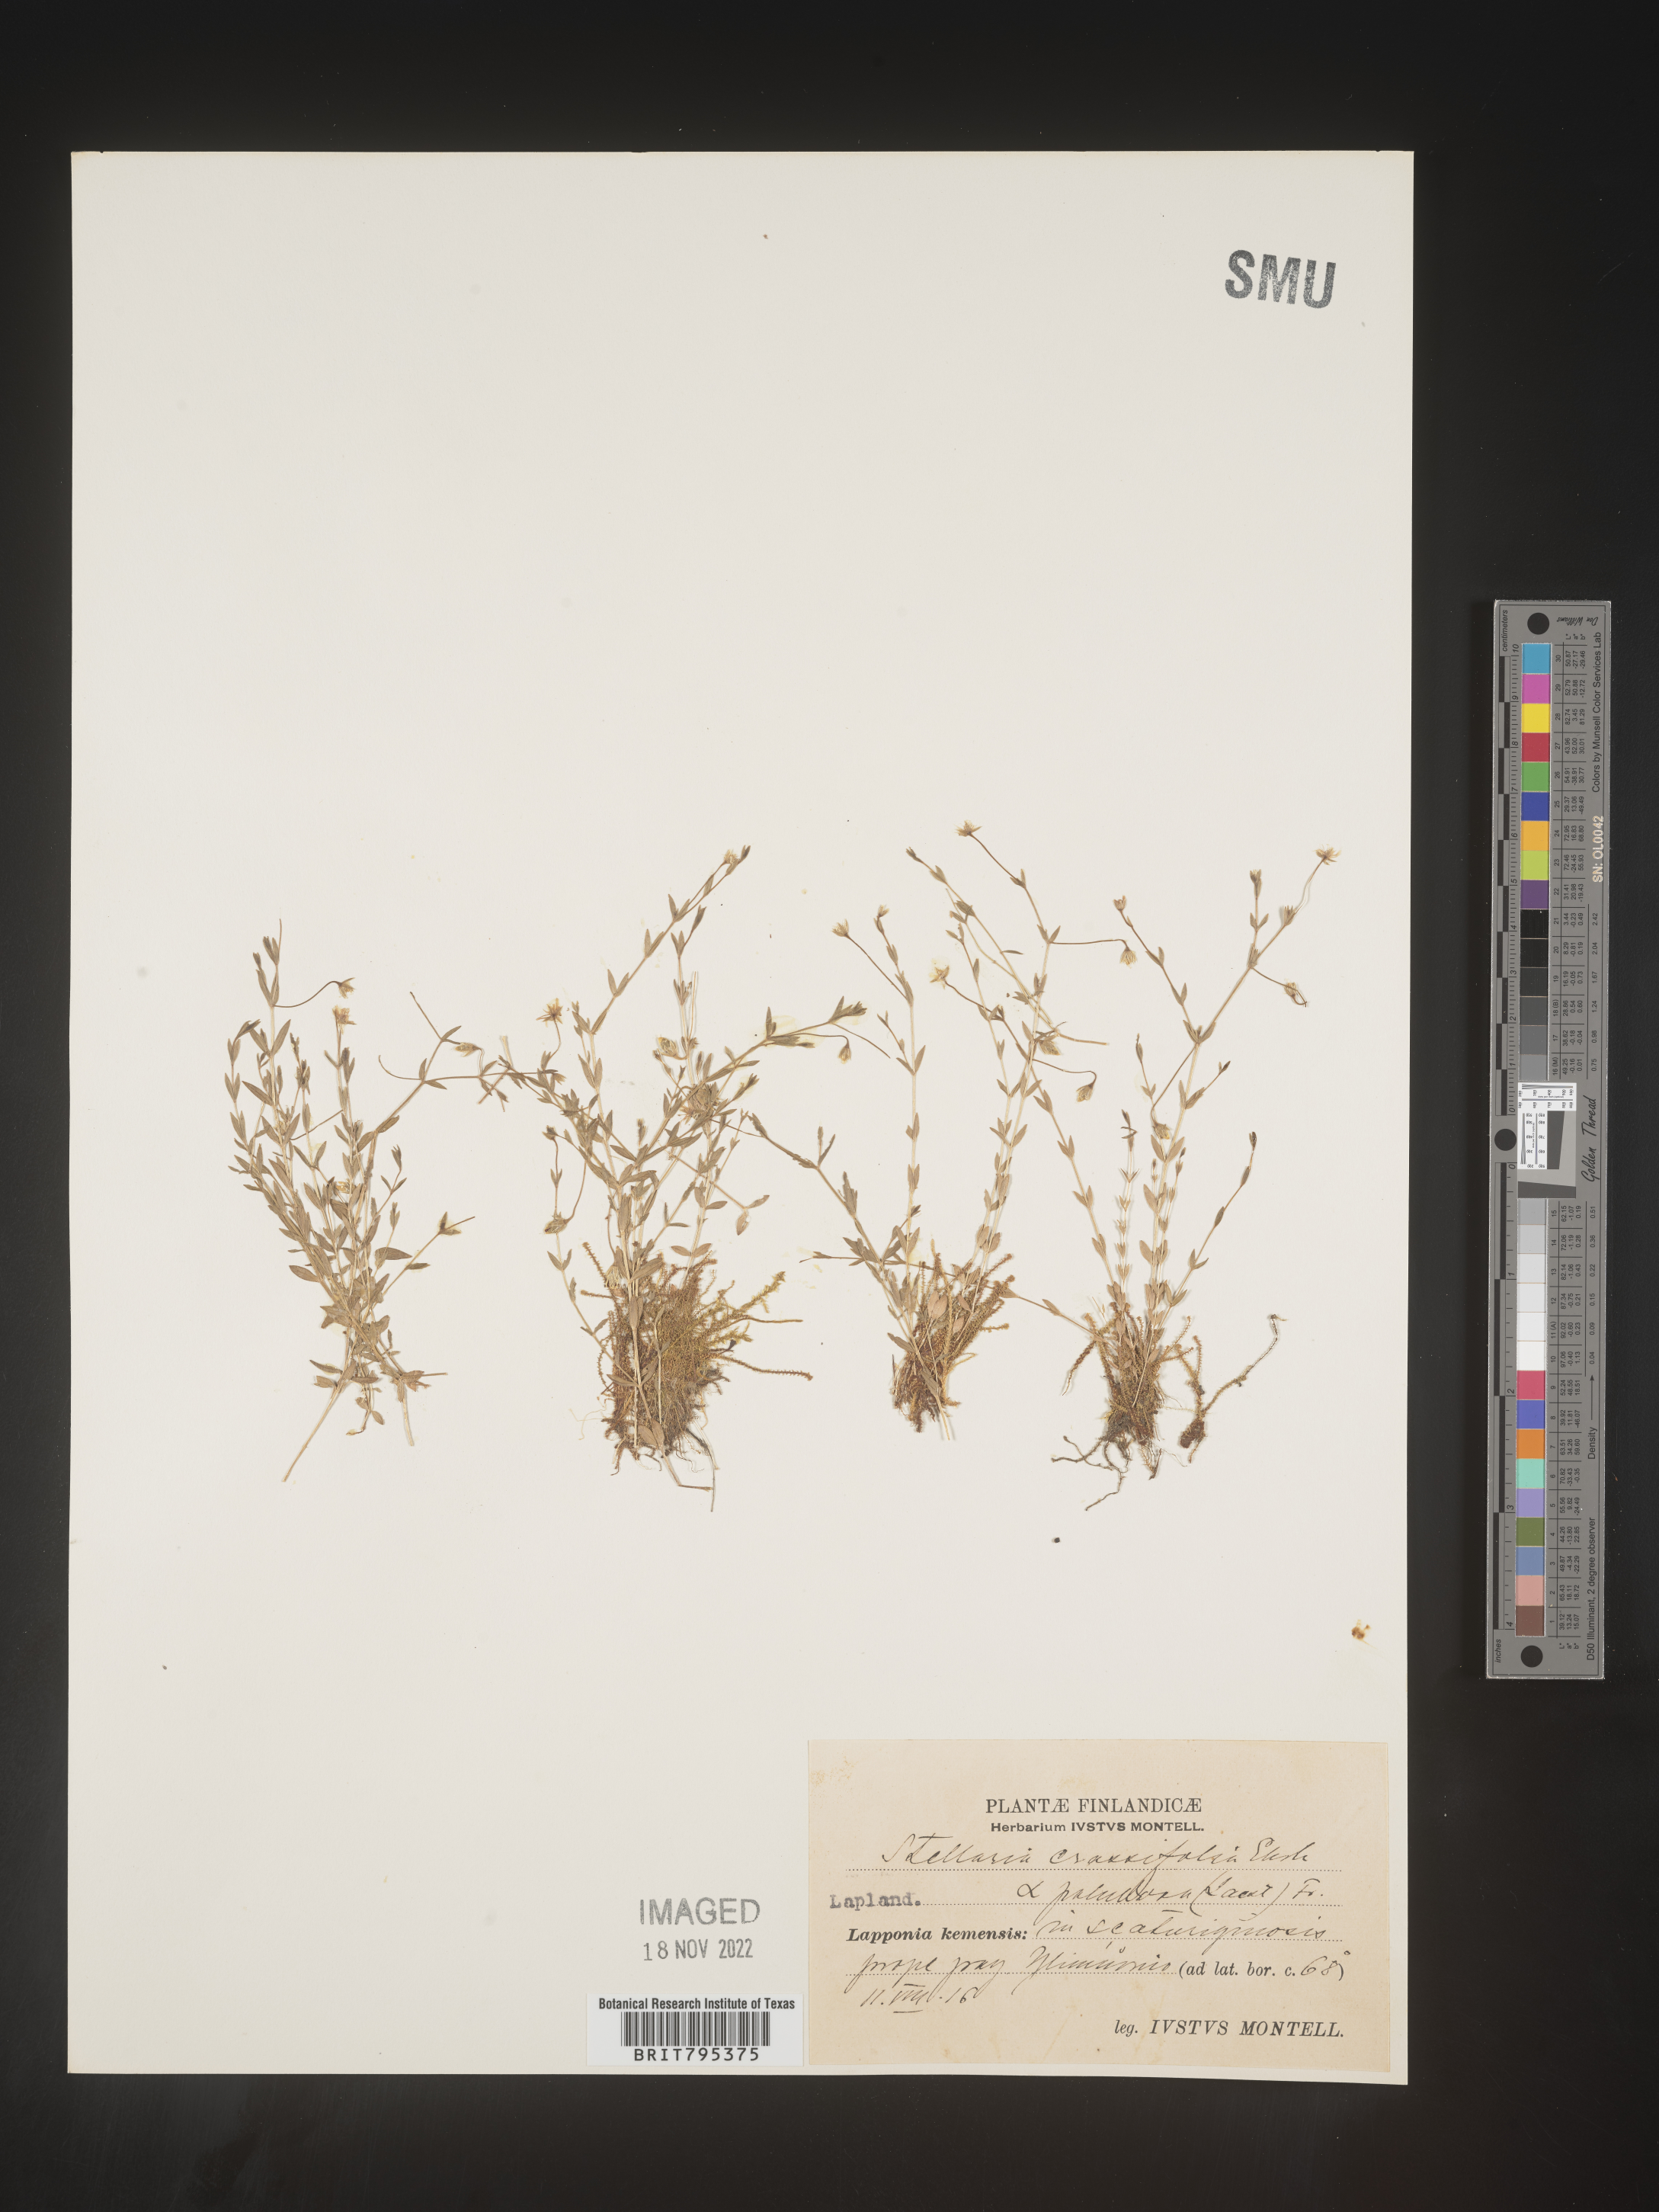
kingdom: Plantae
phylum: Tracheophyta
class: Magnoliopsida
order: Caryophyllales
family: Caryophyllaceae
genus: Stellaria
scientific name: Stellaria
